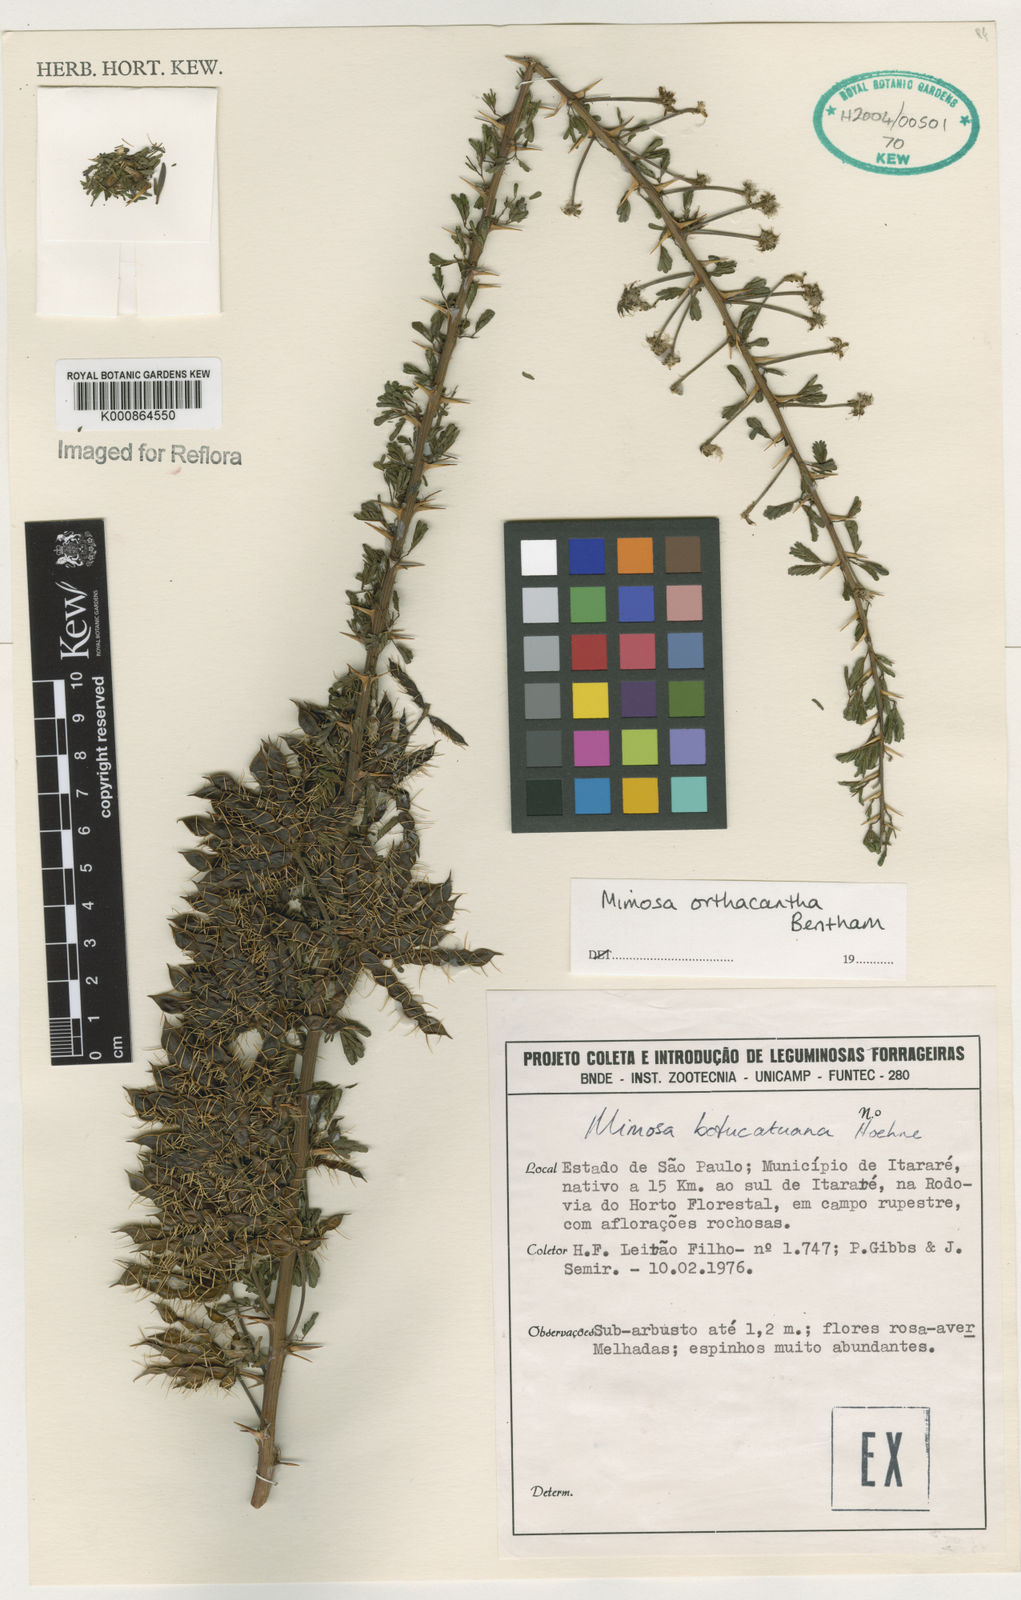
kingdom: Plantae
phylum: Tracheophyta
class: Magnoliopsida
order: Fabales
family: Fabaceae
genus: Mimosa
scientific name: Mimosa orthacantha
